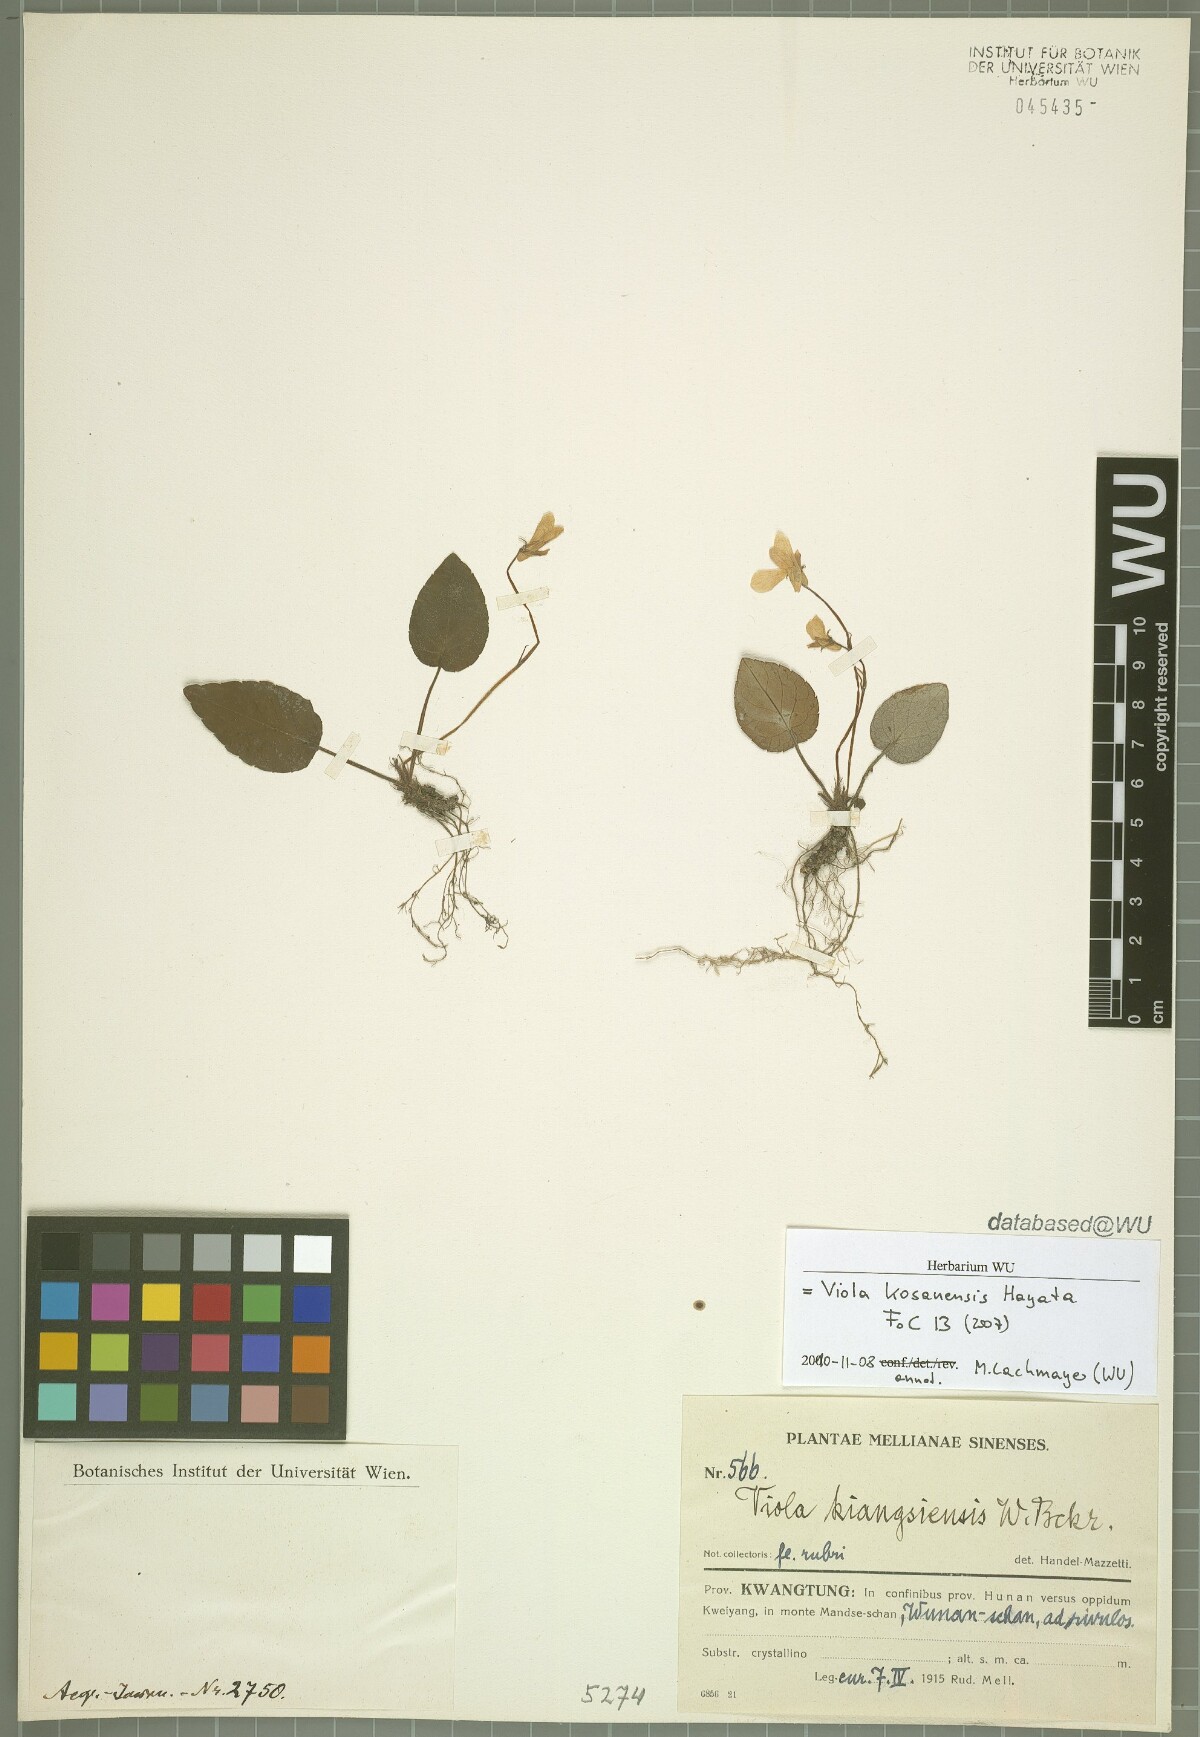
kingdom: Plantae
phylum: Tracheophyta
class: Magnoliopsida
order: Malpighiales
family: Violaceae
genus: Viola
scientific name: Viola kosanensis
